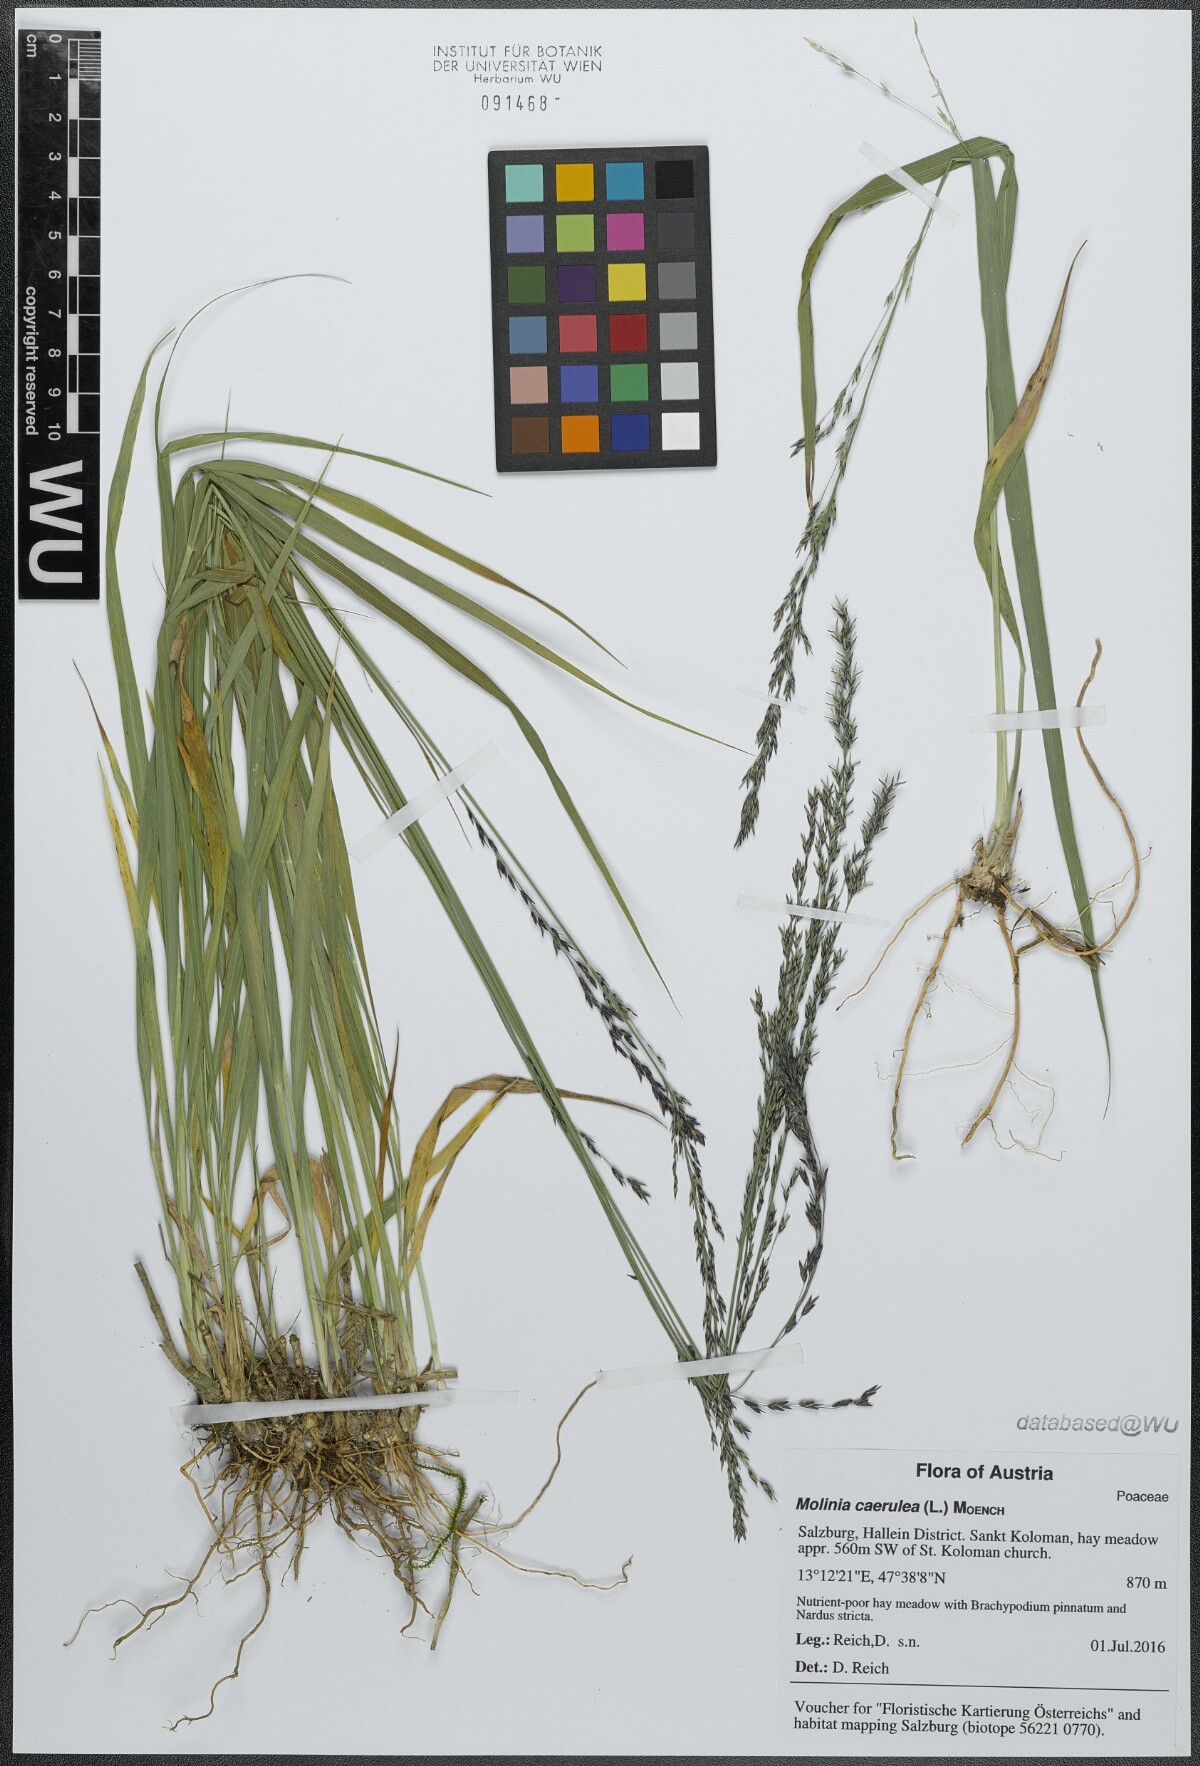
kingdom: Plantae
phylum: Tracheophyta
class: Liliopsida
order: Poales
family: Poaceae
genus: Molinia
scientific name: Molinia caerulea
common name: Purple moor-grass
